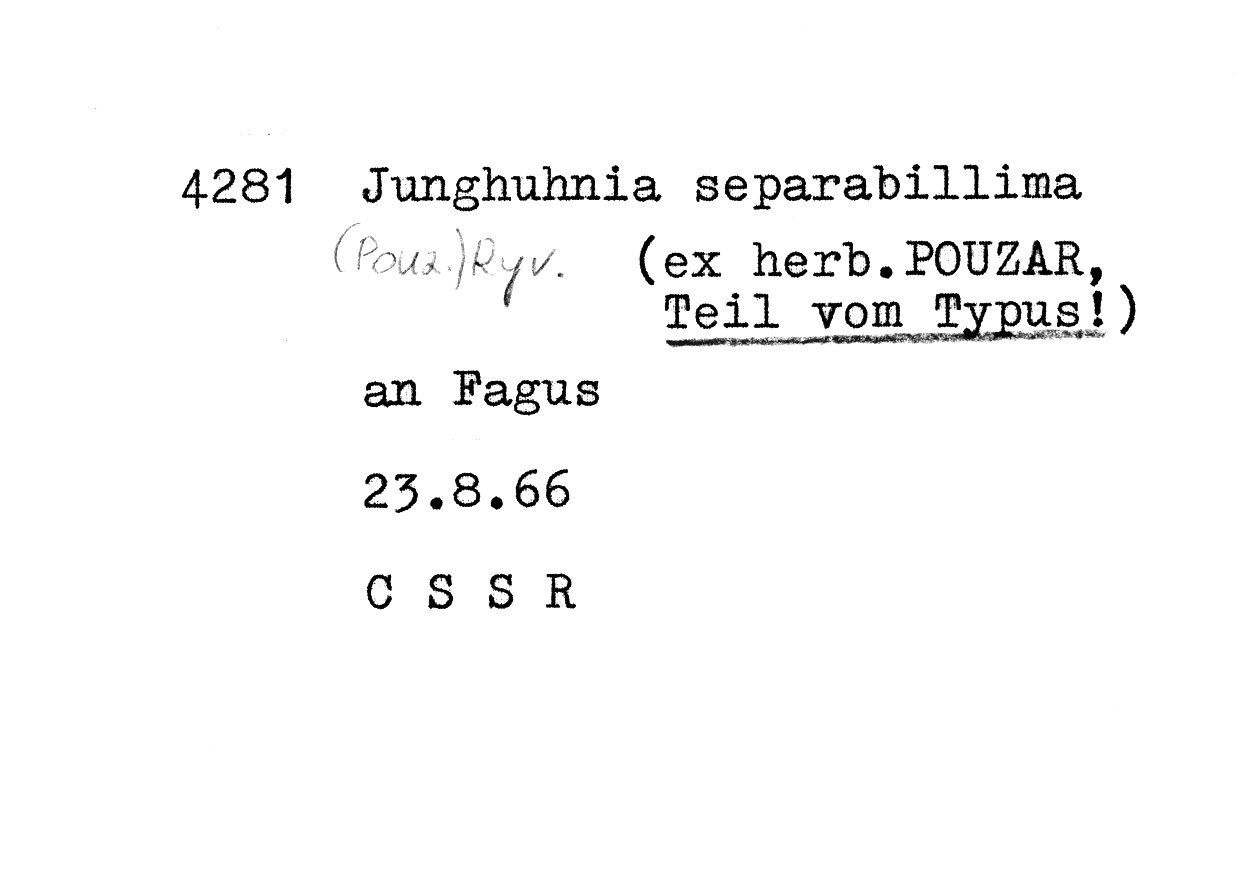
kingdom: Plantae
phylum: Tracheophyta
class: Magnoliopsida
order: Fagales
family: Fagaceae
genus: Fagus
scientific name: Fagus sylvatica
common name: Beech
